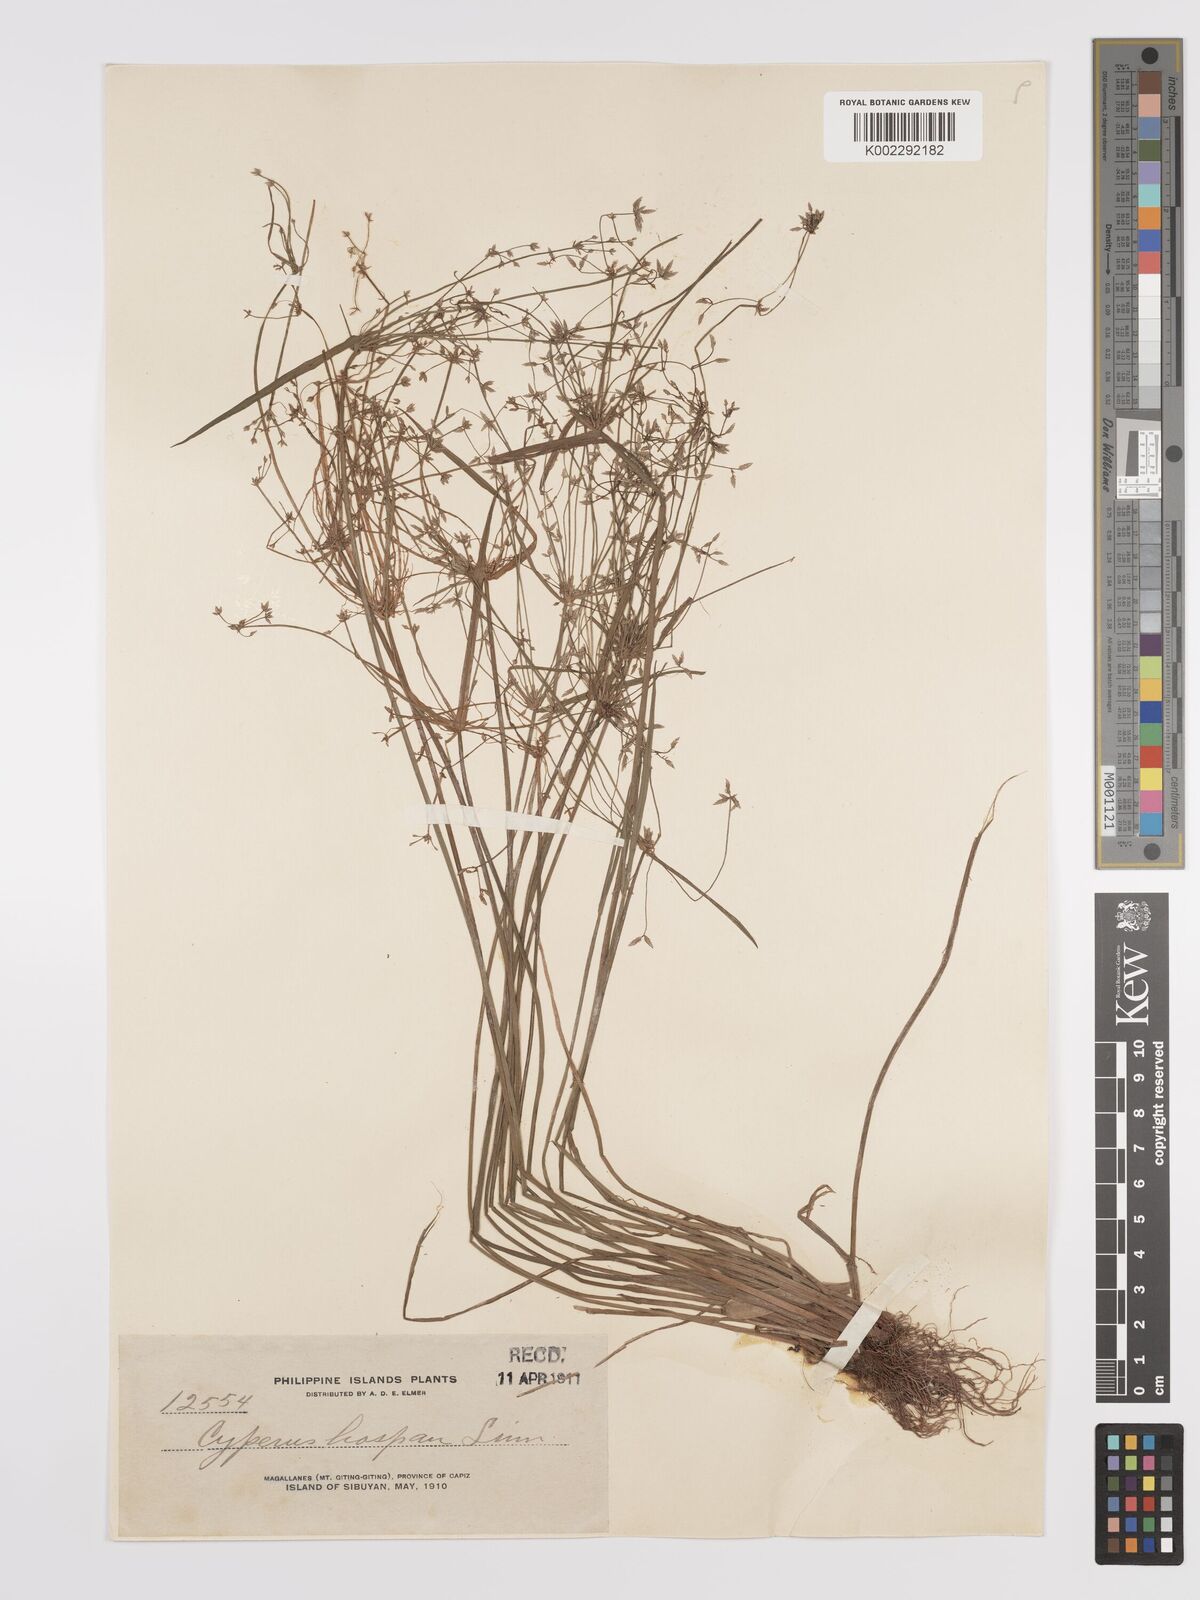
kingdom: Plantae
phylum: Tracheophyta
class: Liliopsida
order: Poales
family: Cyperaceae
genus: Cyperus
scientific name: Cyperus haspan
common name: Haspan flatsedge
